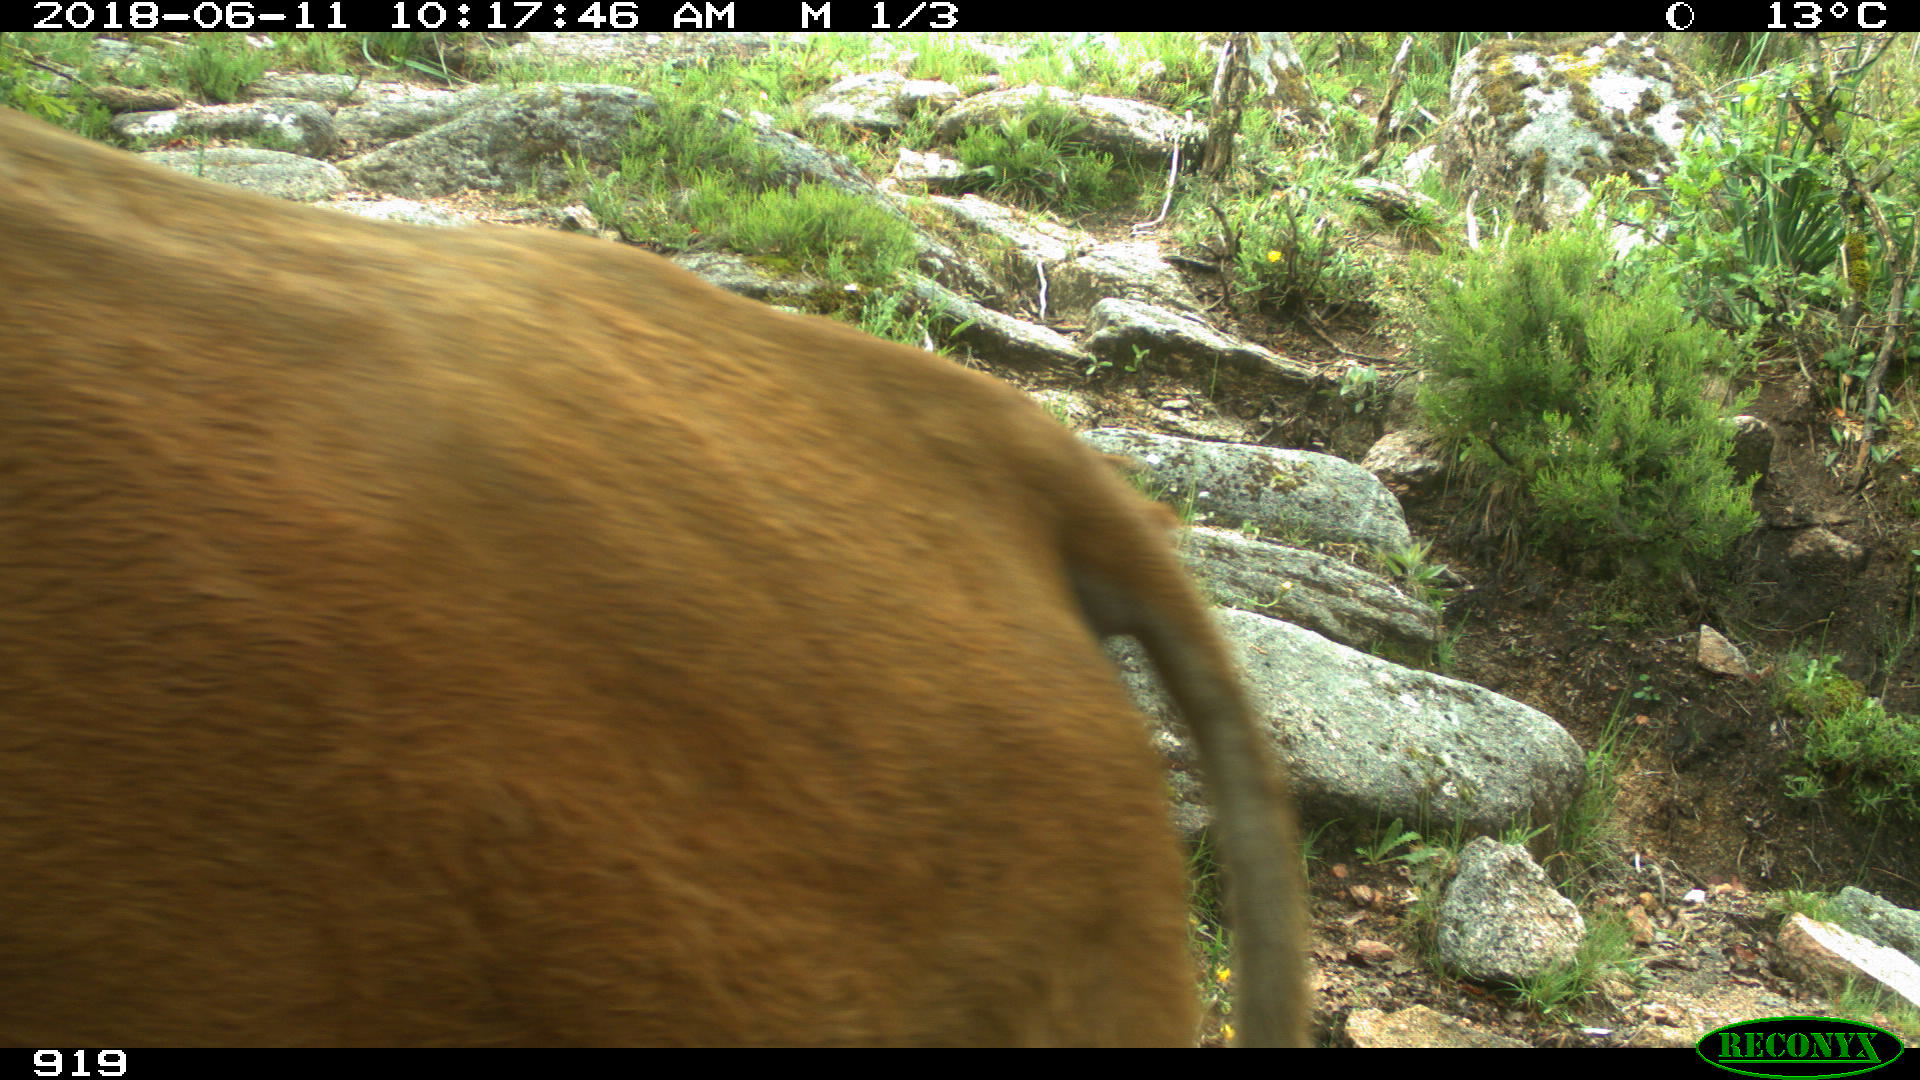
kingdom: Animalia
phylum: Chordata
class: Mammalia
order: Artiodactyla
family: Bovidae
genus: Bos
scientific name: Bos taurus
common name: Domesticated cattle
